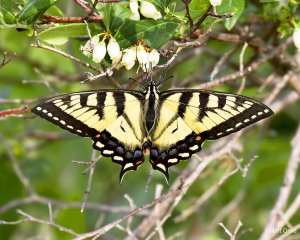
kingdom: Animalia
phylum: Arthropoda
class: Insecta
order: Lepidoptera
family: Papilionidae
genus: Pterourus
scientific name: Pterourus canadensis
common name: Canadian Tiger Swallowtail
